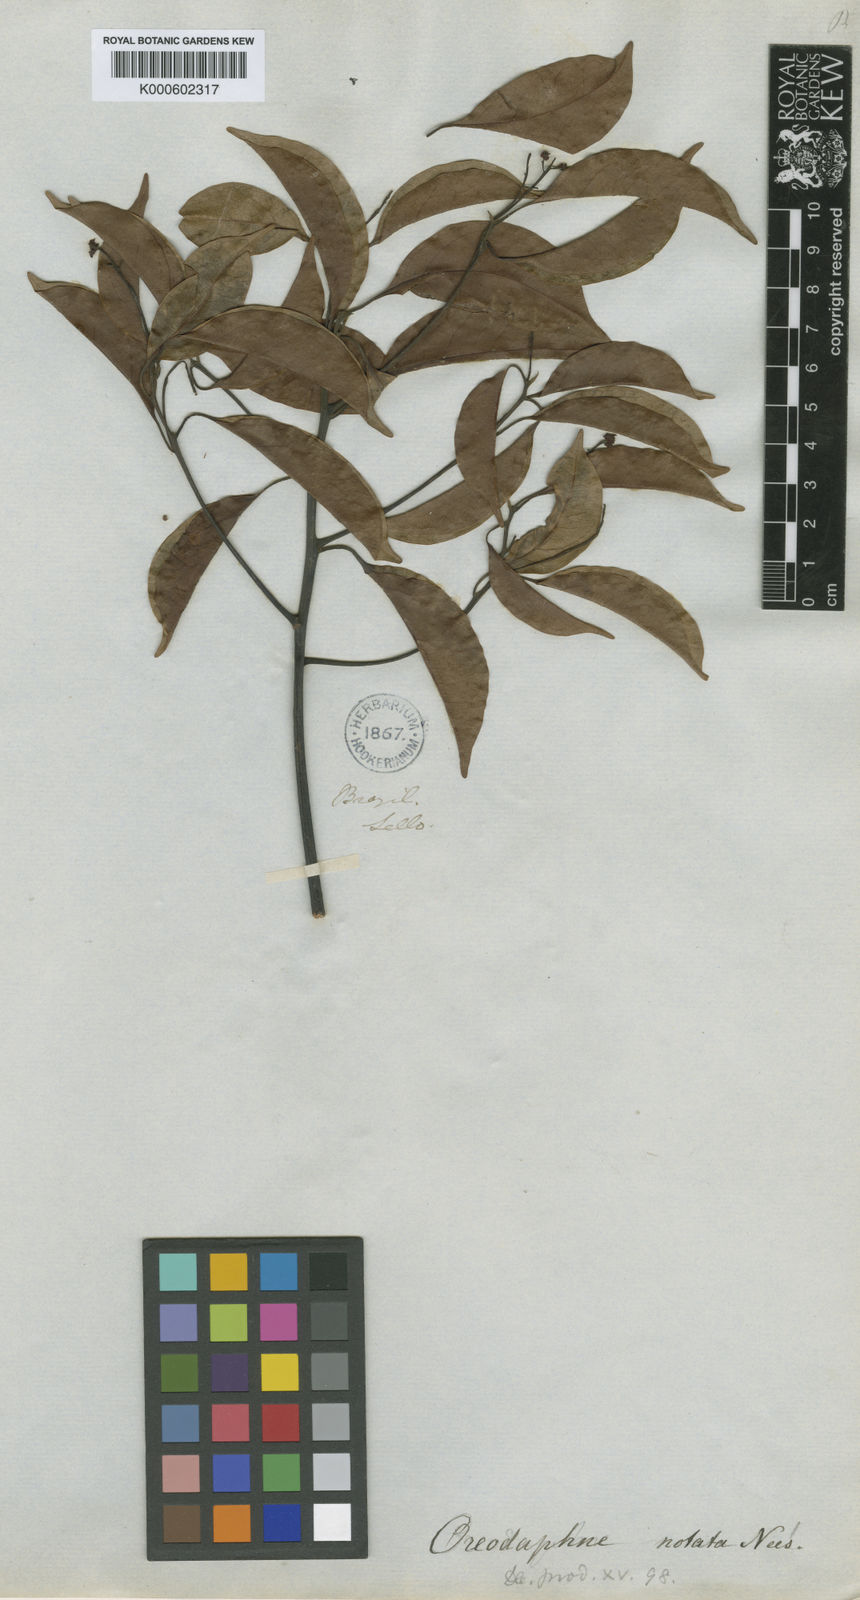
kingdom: Plantae
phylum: Tracheophyta
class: Magnoliopsida
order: Laurales
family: Lauraceae
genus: Mespilodaphne
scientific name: Mespilodaphne notata
